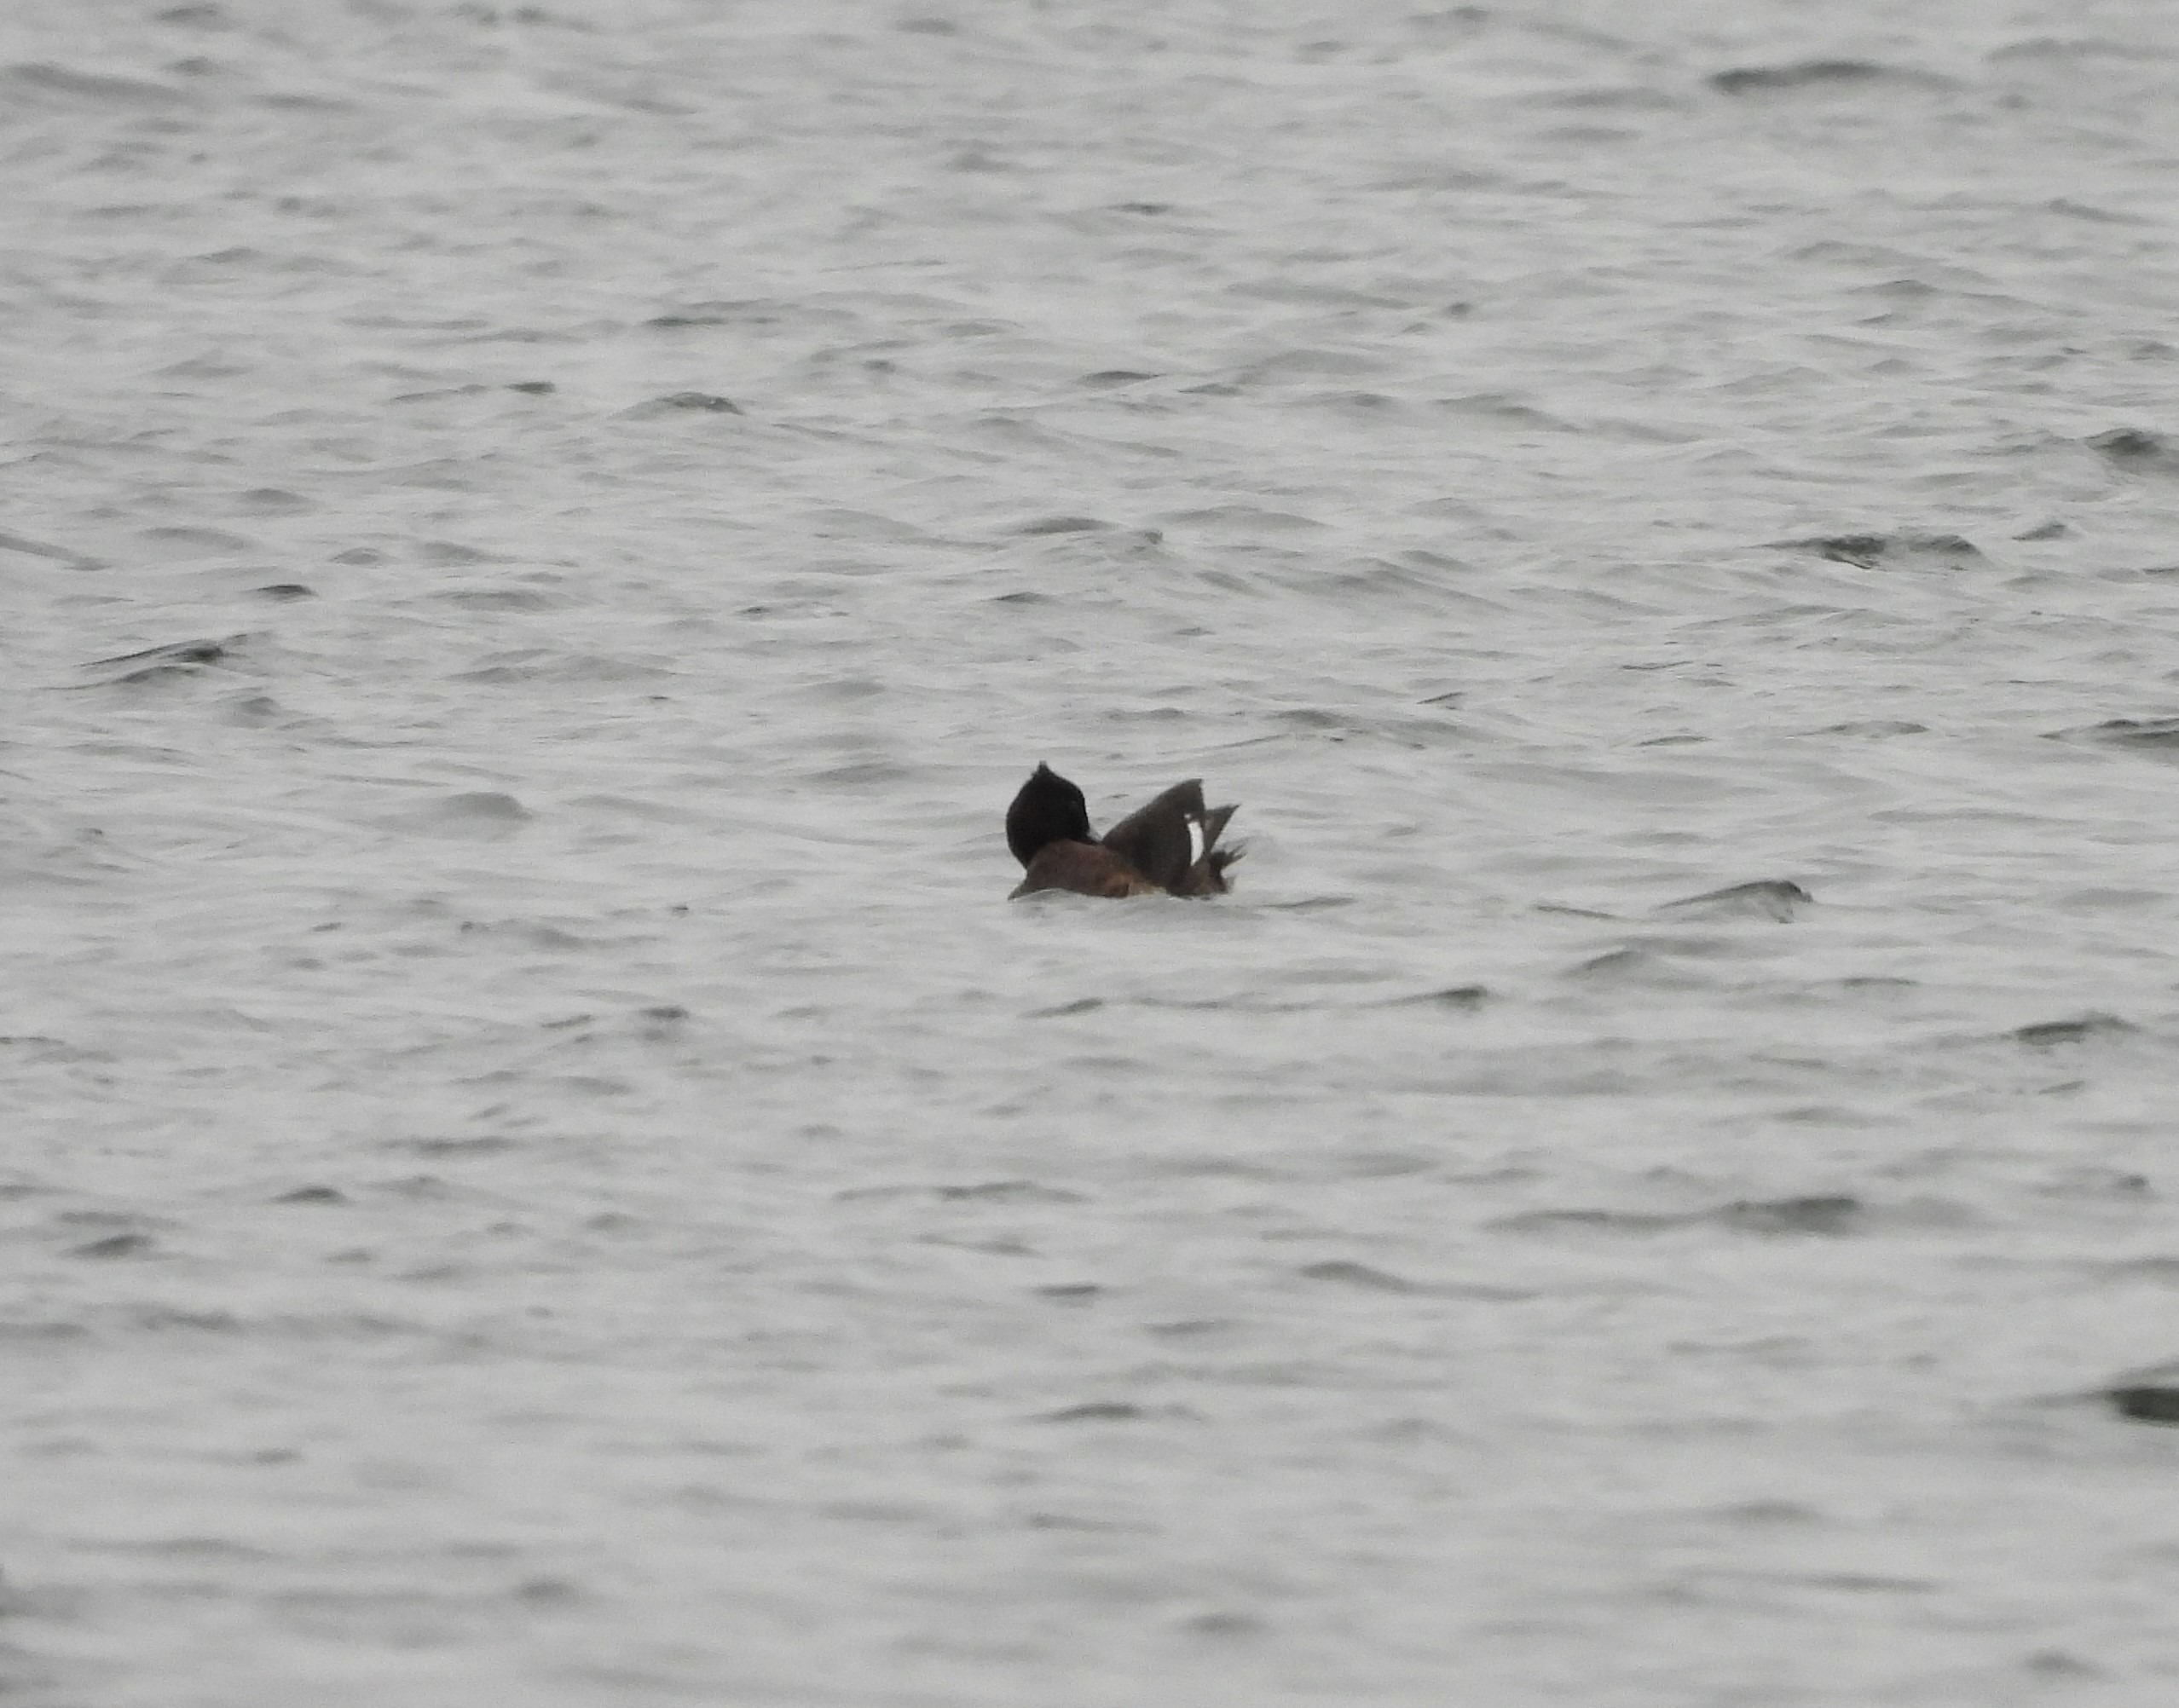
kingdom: Animalia
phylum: Chordata
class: Aves
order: Anseriformes
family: Anatidae
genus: Aythya
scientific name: Aythya fuligula
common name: Troldand
